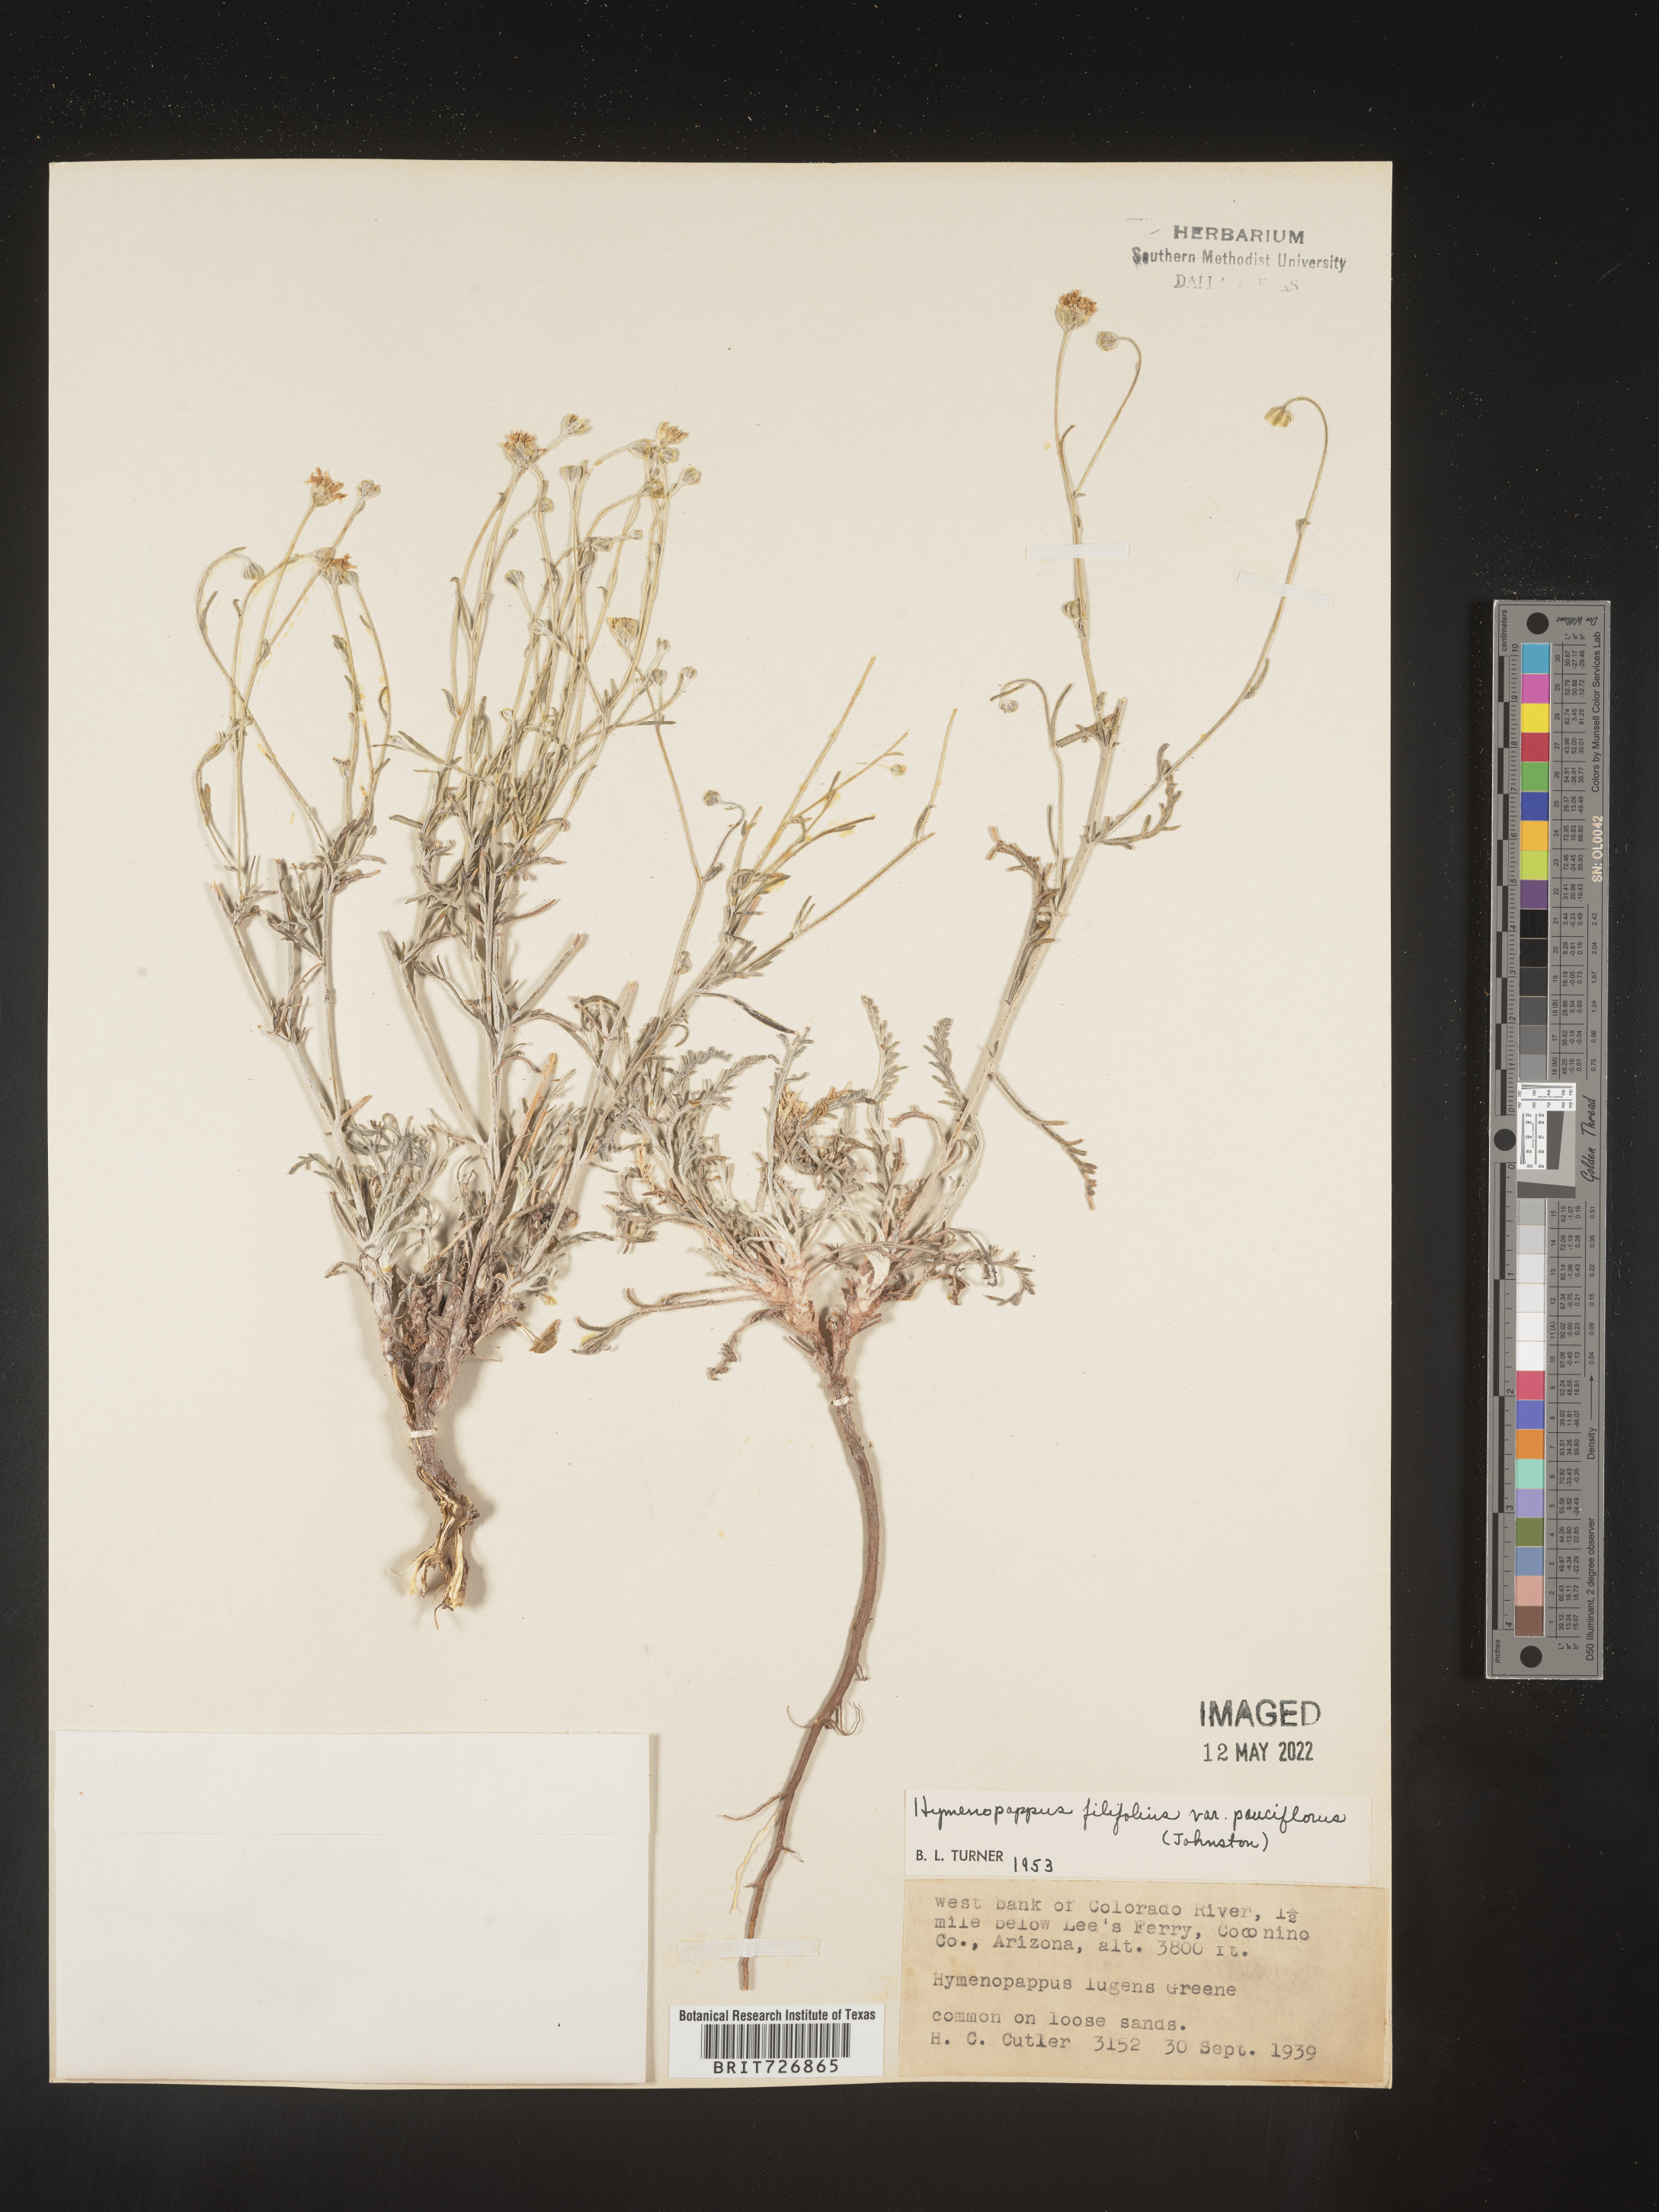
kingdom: Plantae
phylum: Tracheophyta
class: Magnoliopsida
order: Asterales
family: Asteraceae
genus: Hymenopappus
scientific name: Hymenopappus filifolius
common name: Columbia cutleaf
